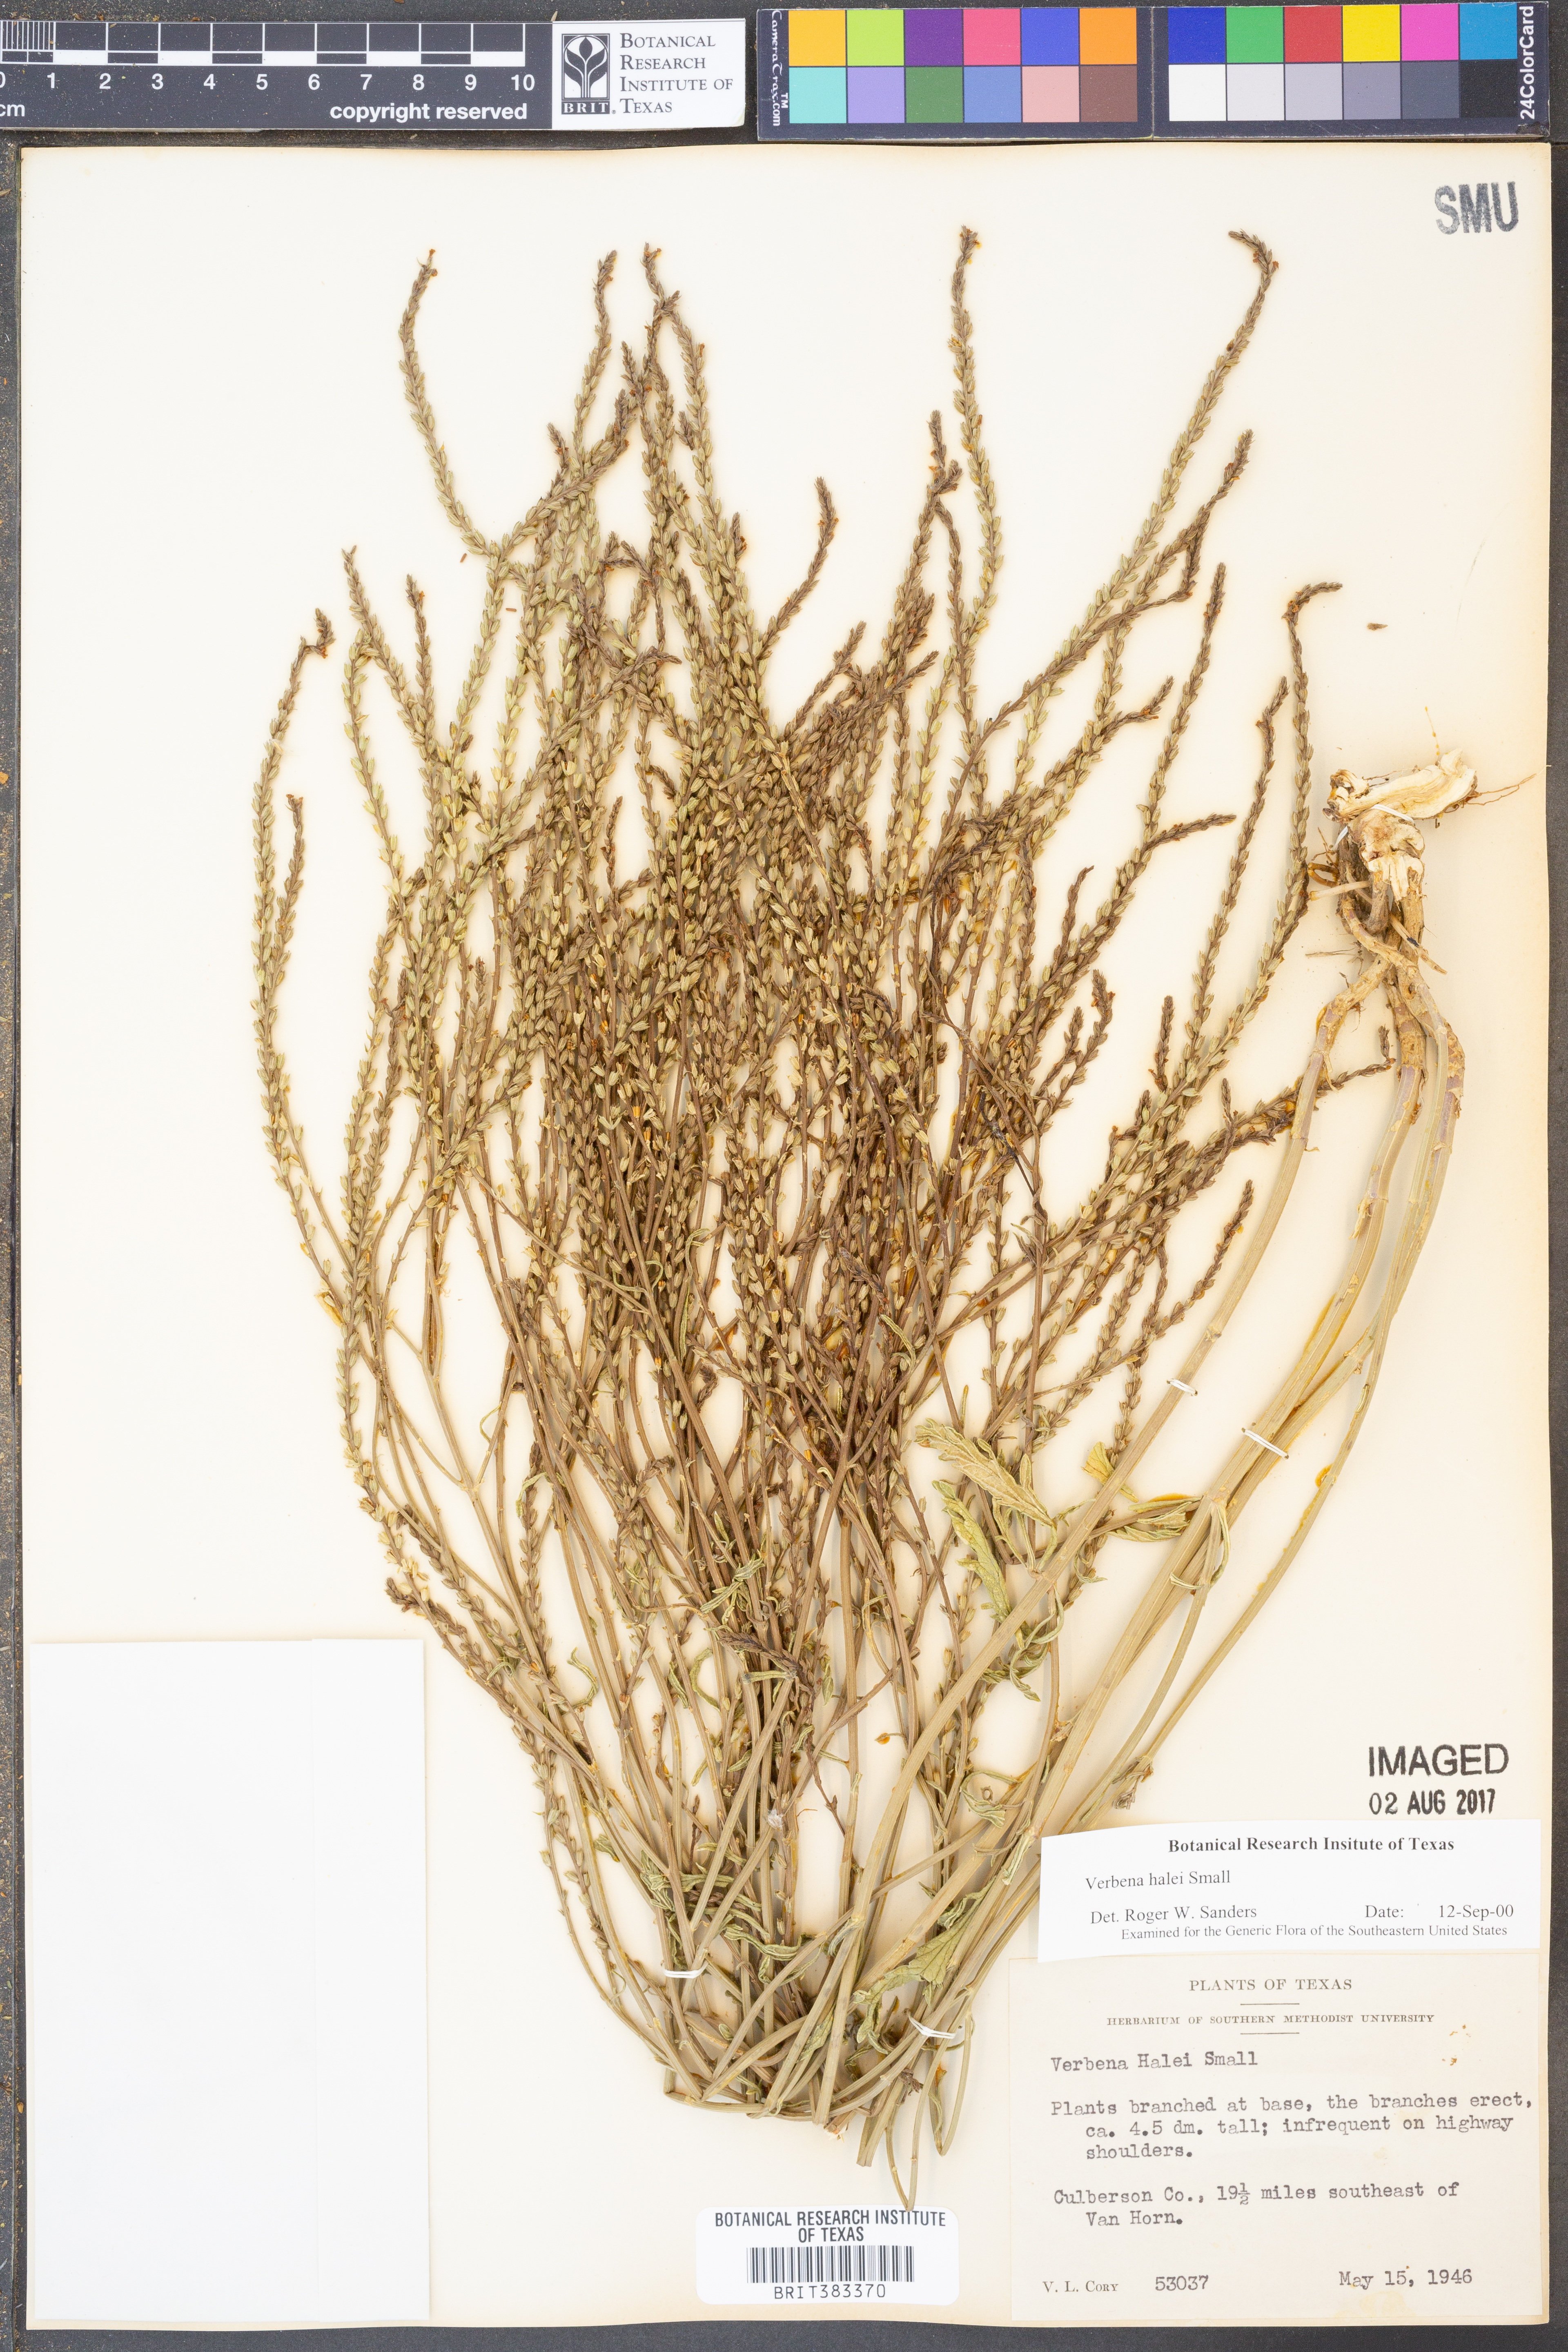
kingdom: Plantae
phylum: Tracheophyta
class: Magnoliopsida
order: Lamiales
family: Verbenaceae
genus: Verbena
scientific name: Verbena halei
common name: Texas vervain
